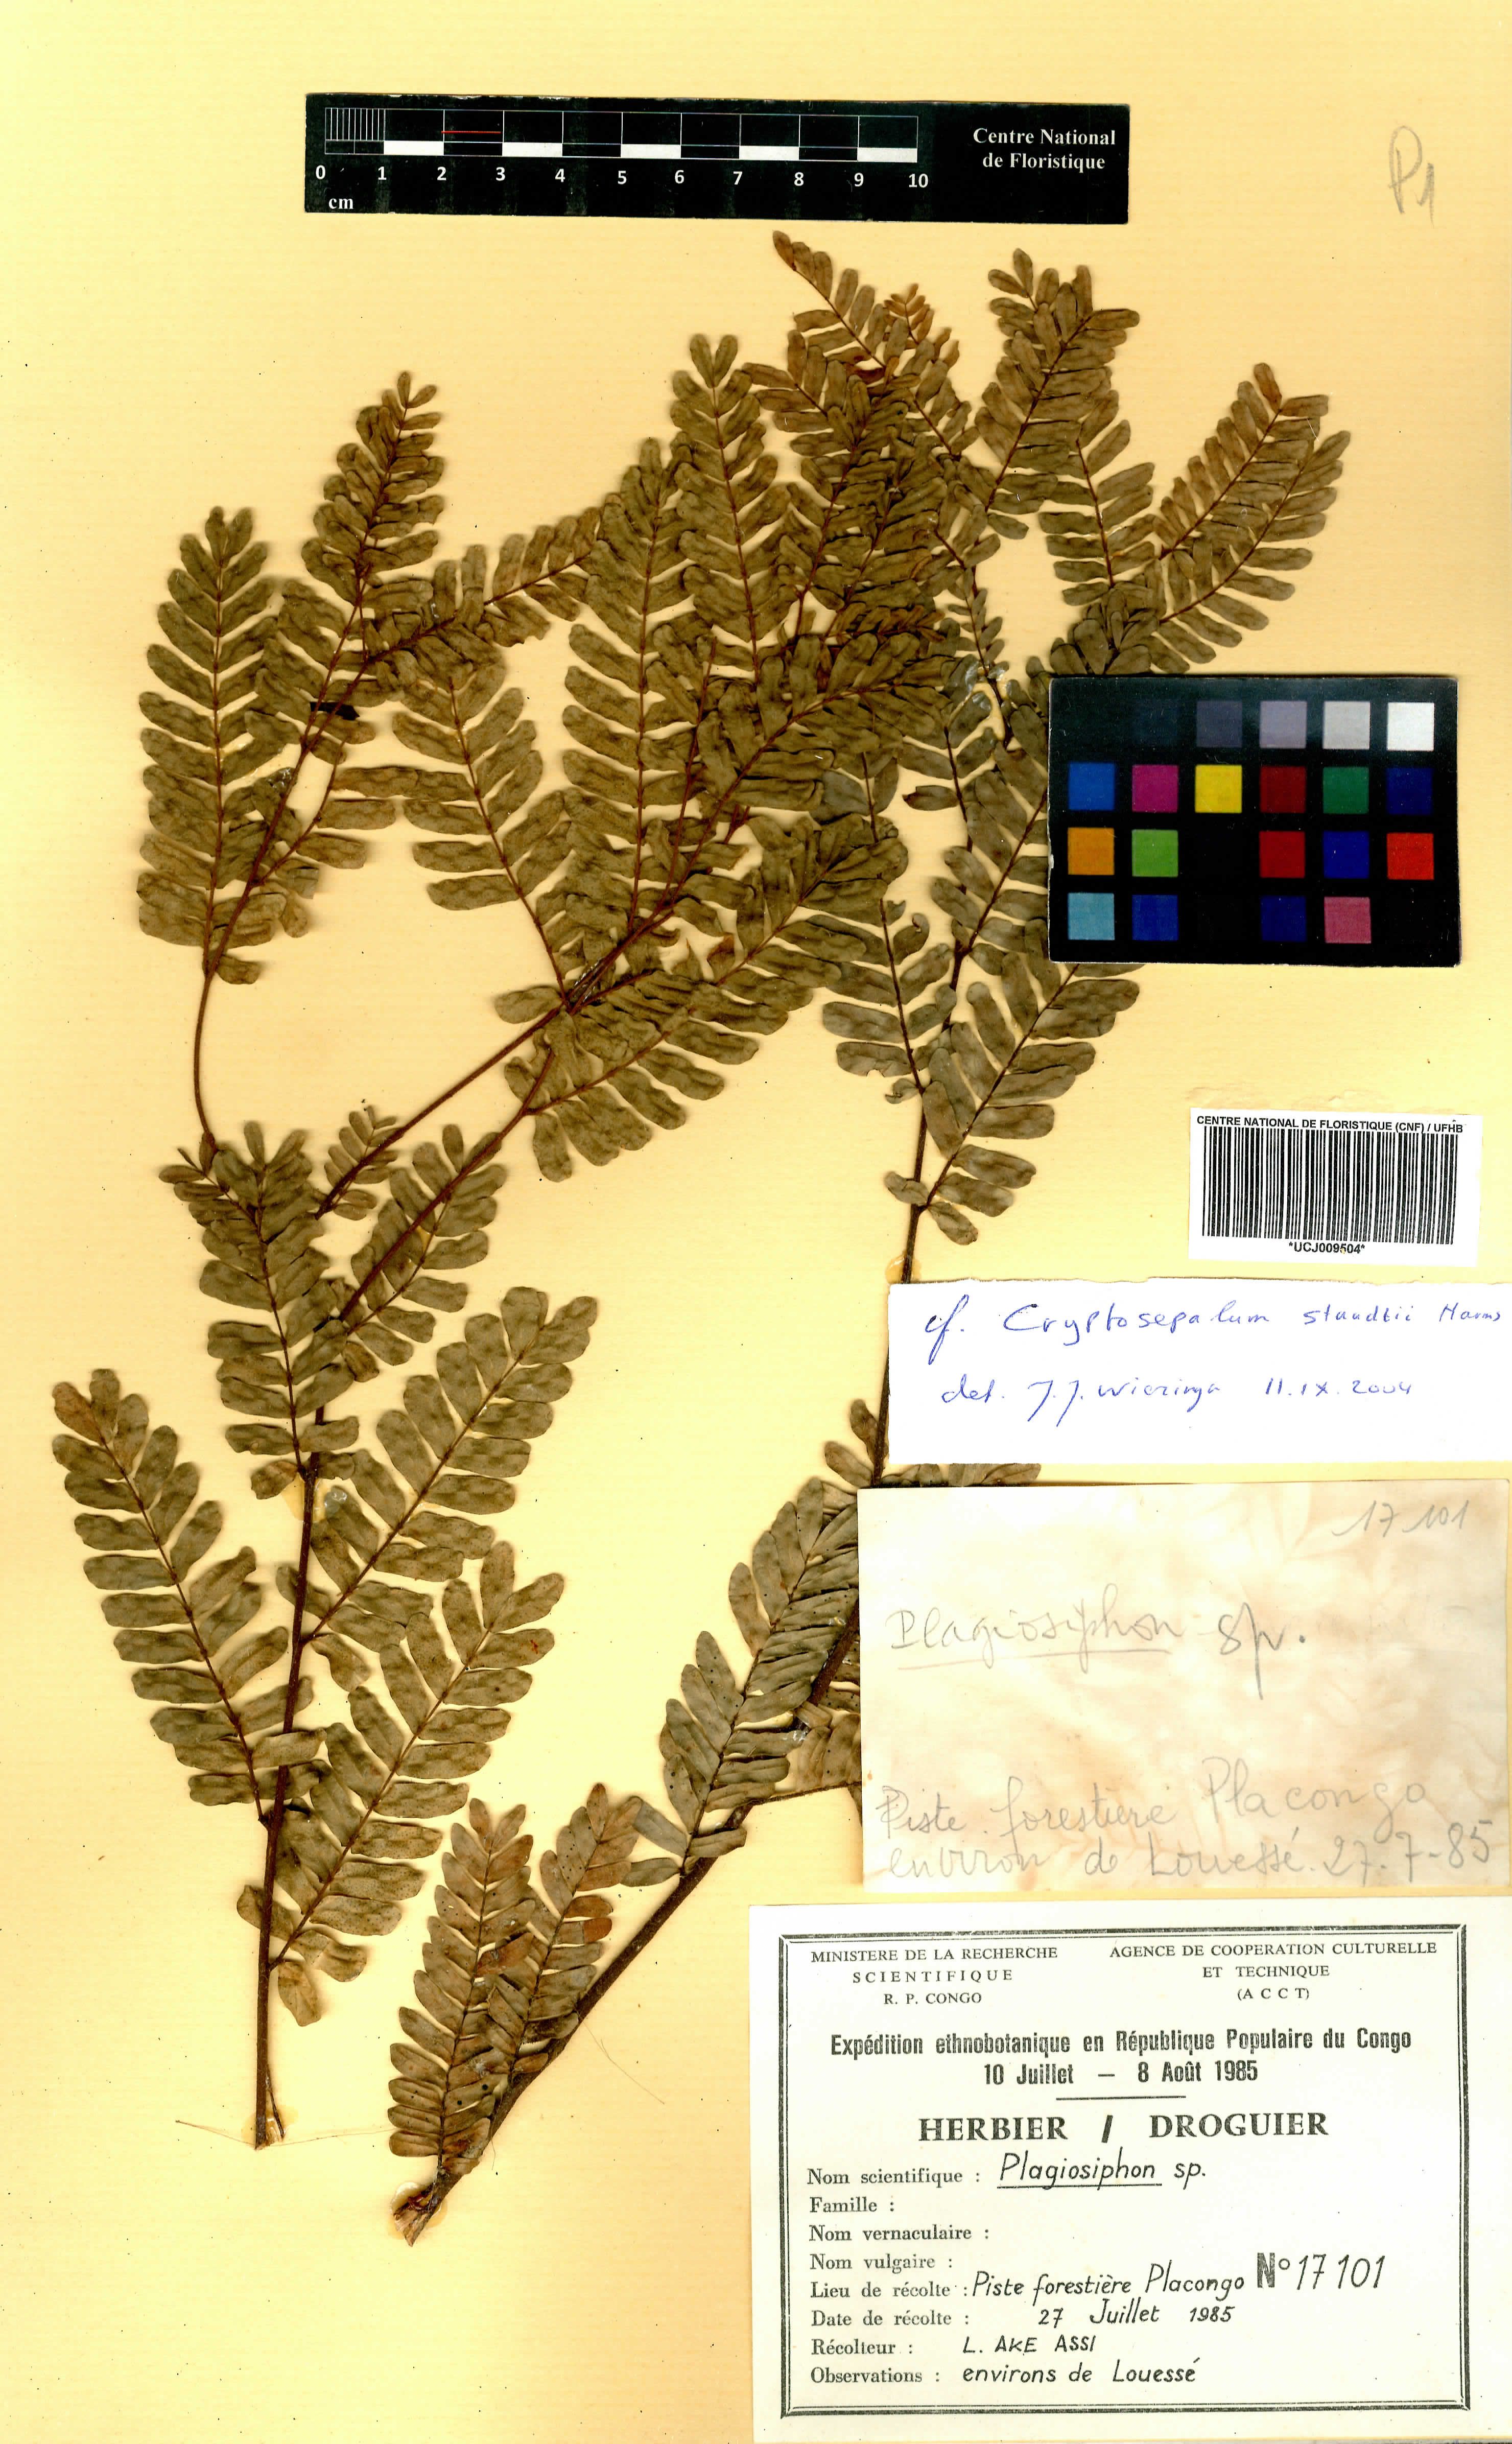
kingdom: Plantae
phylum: Tracheophyta
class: Magnoliopsida
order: Fabales
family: Fabaceae
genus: Plagiosiphon
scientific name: Plagiosiphon
